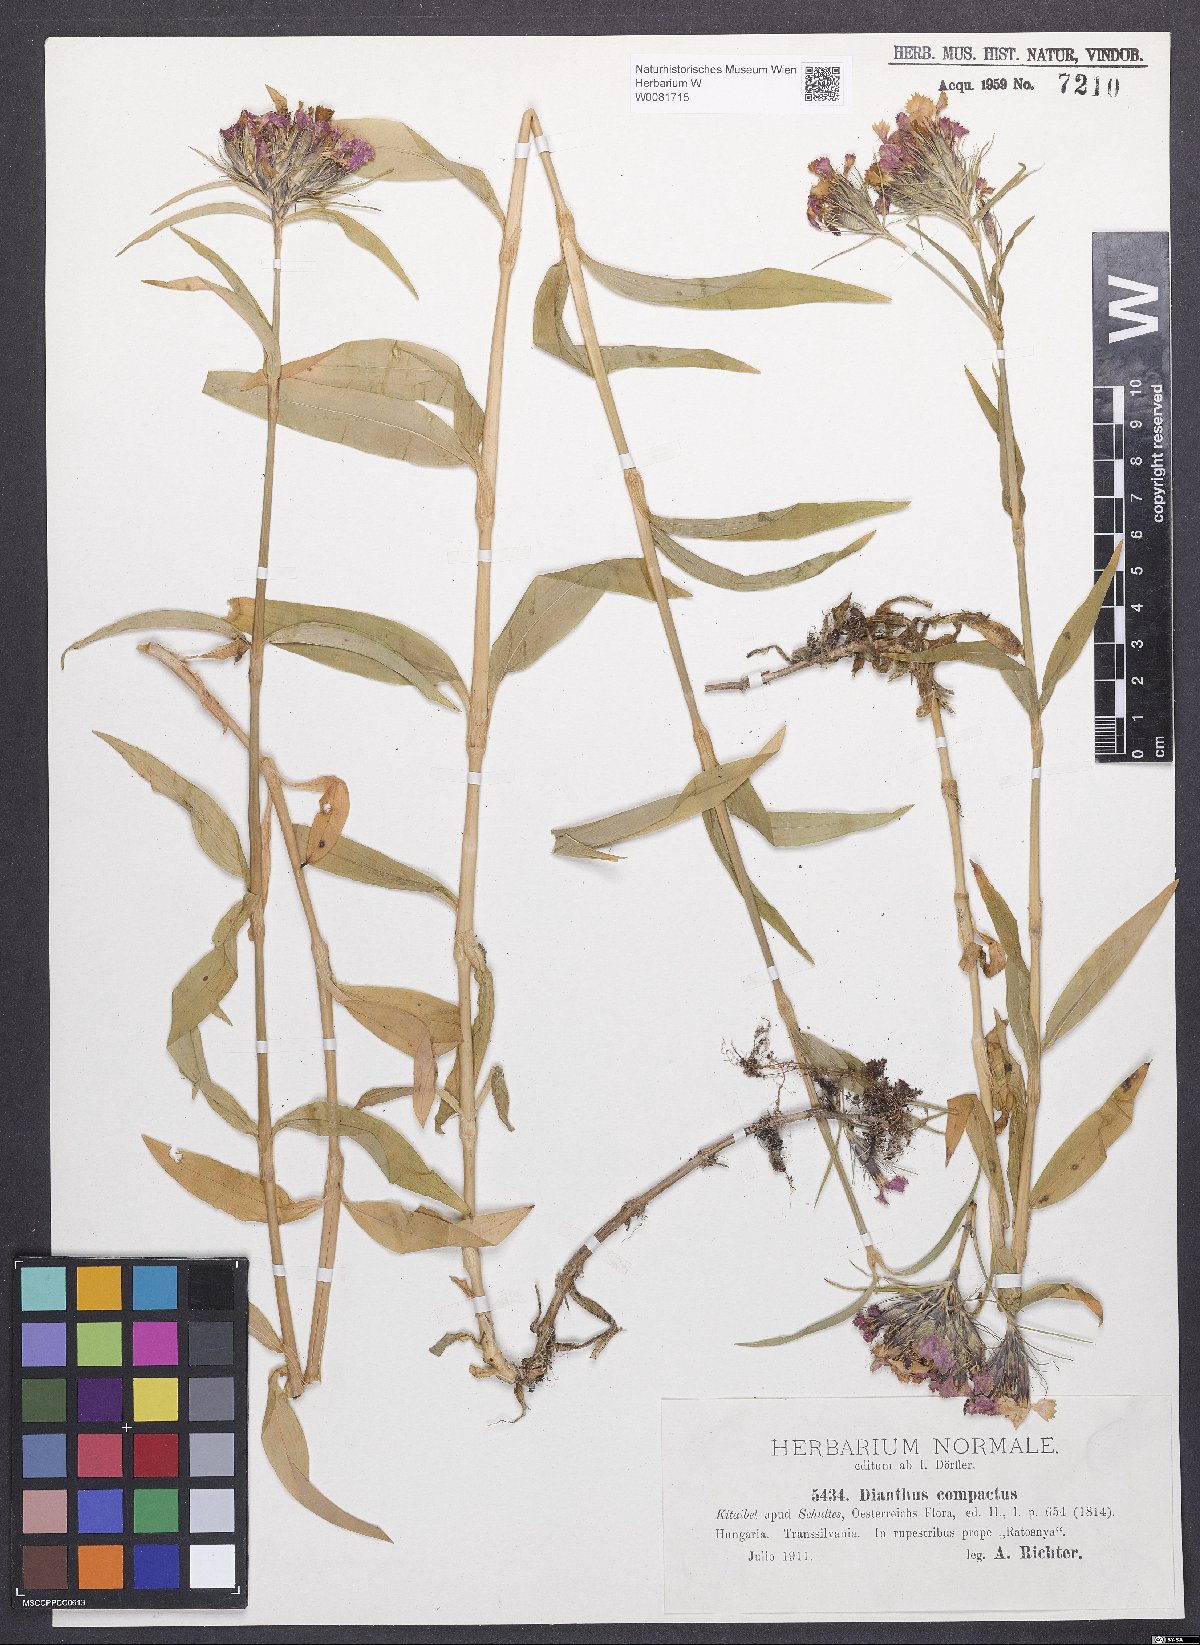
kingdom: Plantae
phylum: Tracheophyta
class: Magnoliopsida
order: Caryophyllales
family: Caryophyllaceae
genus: Dianthus
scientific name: Dianthus barbatus
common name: Sweet-william
